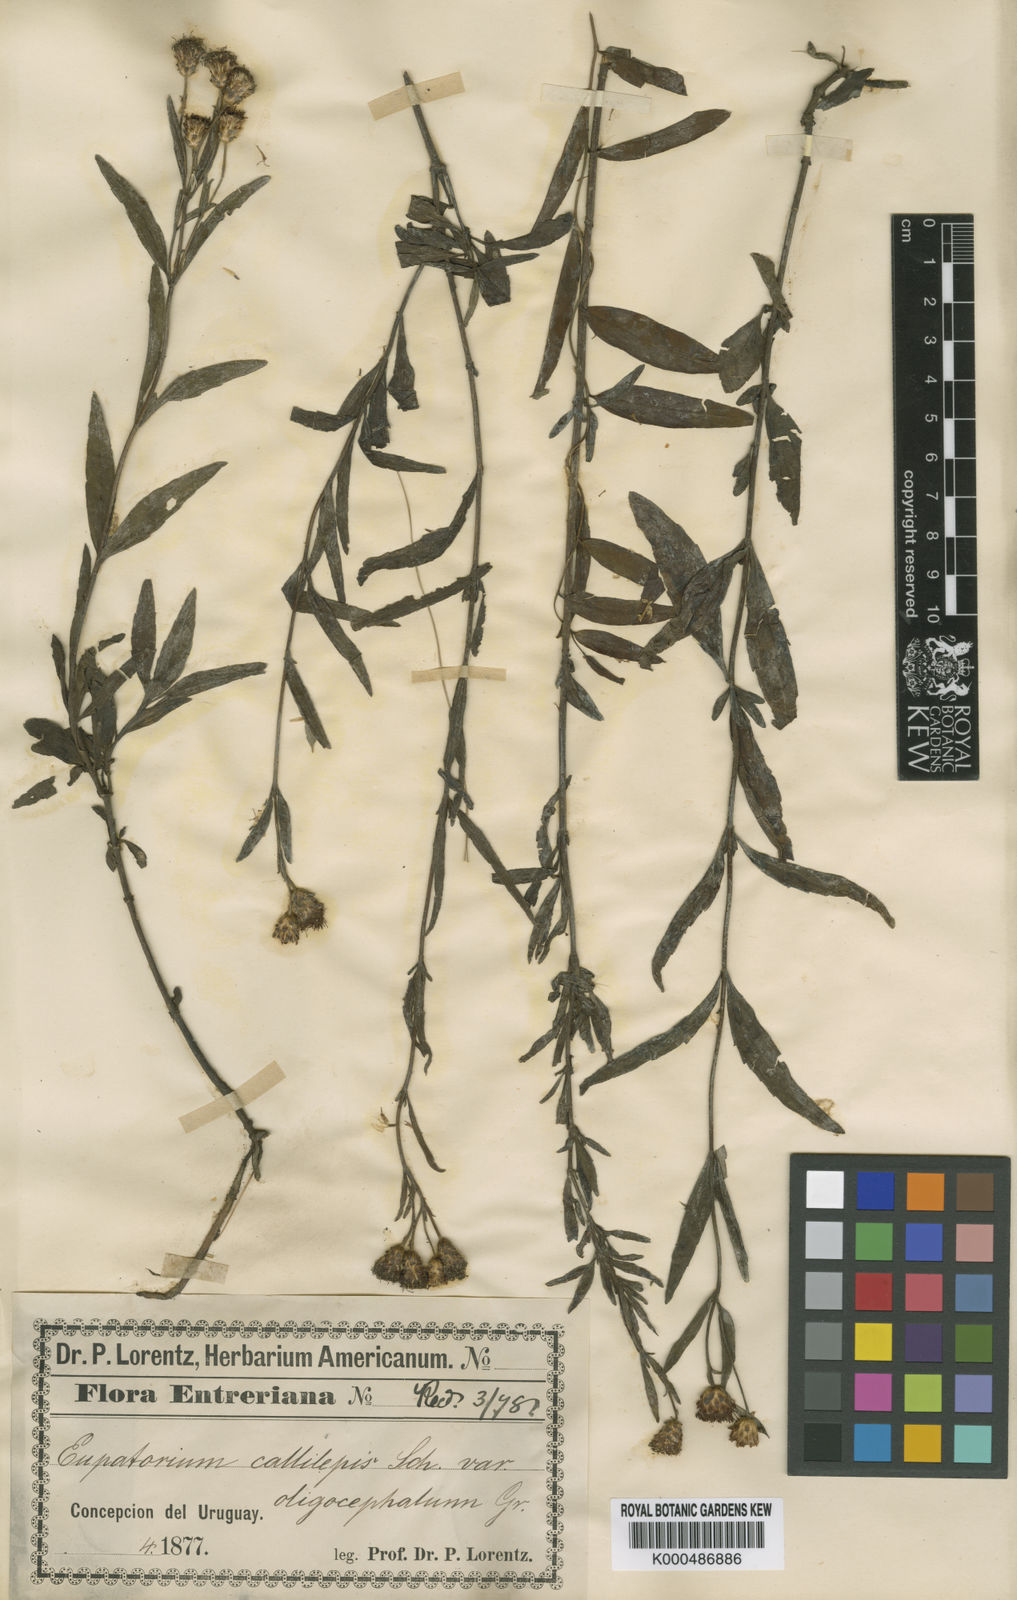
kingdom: Plantae
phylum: Tracheophyta
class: Magnoliopsida
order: Asterales
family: Asteraceae
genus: Chromolaena
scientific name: Chromolaena callilepis
